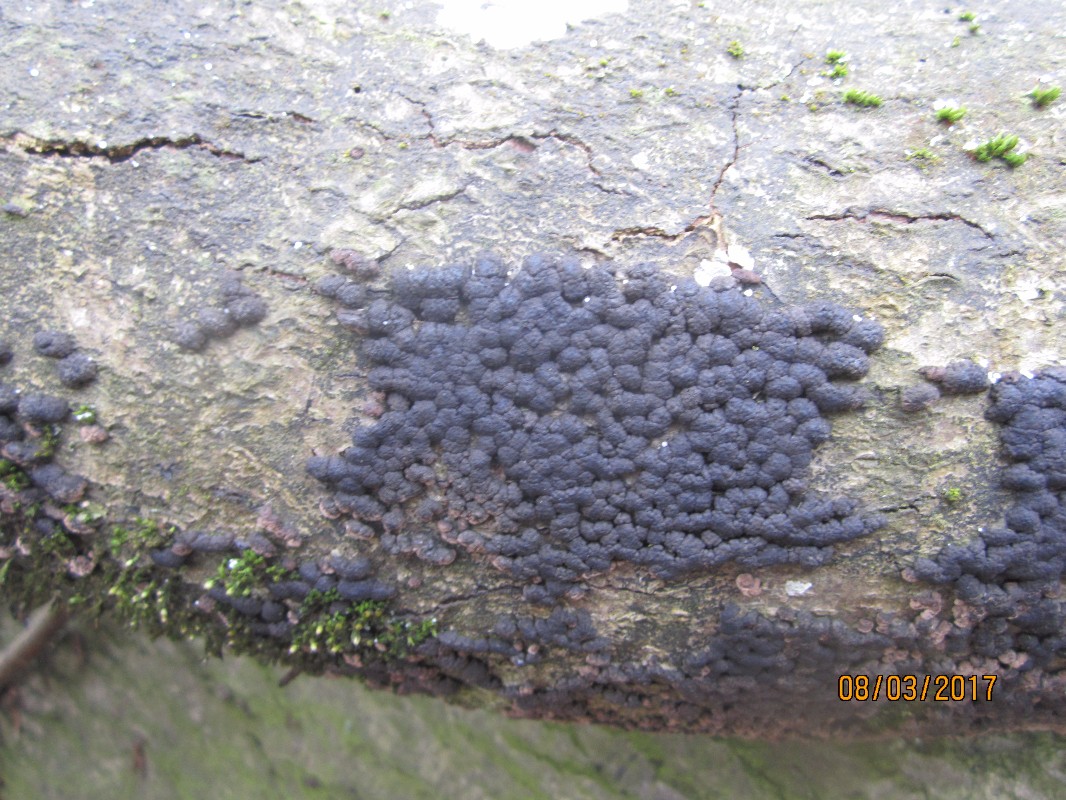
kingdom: Fungi
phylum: Ascomycota
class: Sordariomycetes
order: Xylariales
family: Hypoxylaceae
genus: Jackrogersella
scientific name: Jackrogersella cohaerens
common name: sammenflydende kulbær
